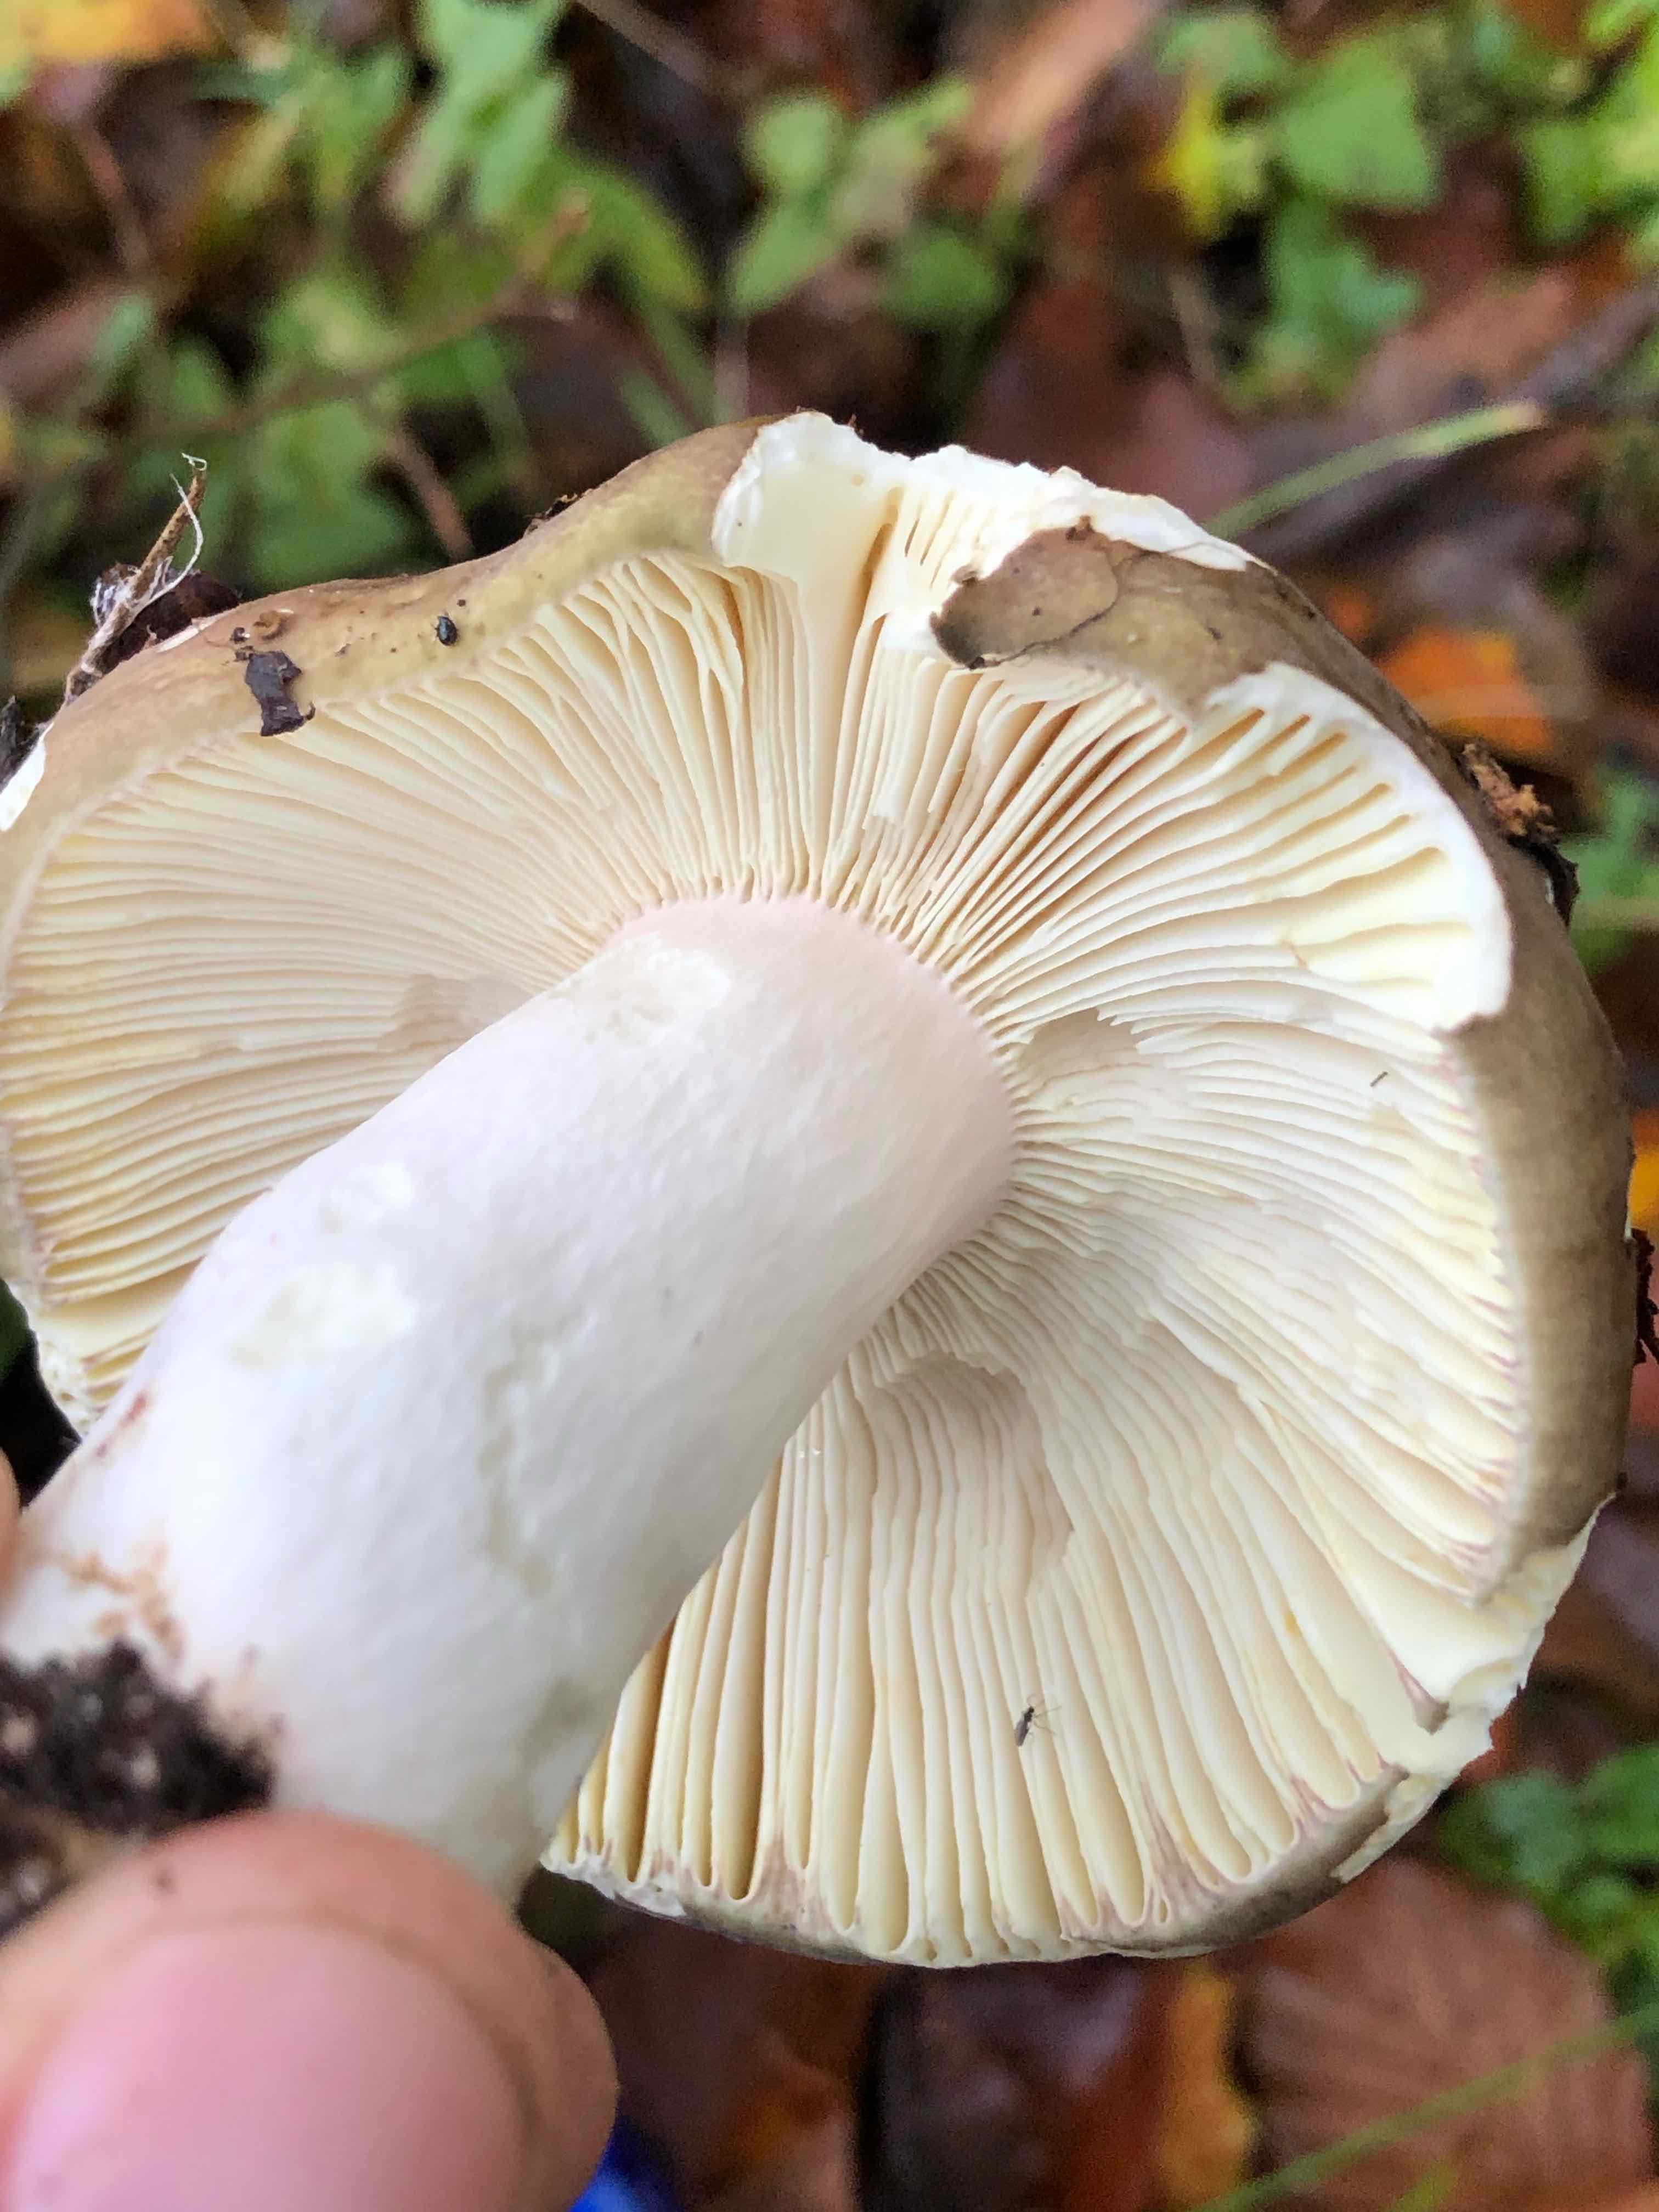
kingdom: Fungi
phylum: Basidiomycota
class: Agaricomycetes
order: Russulales
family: Russulaceae
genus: Russula
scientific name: Russula olivacea
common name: stor skørhat
